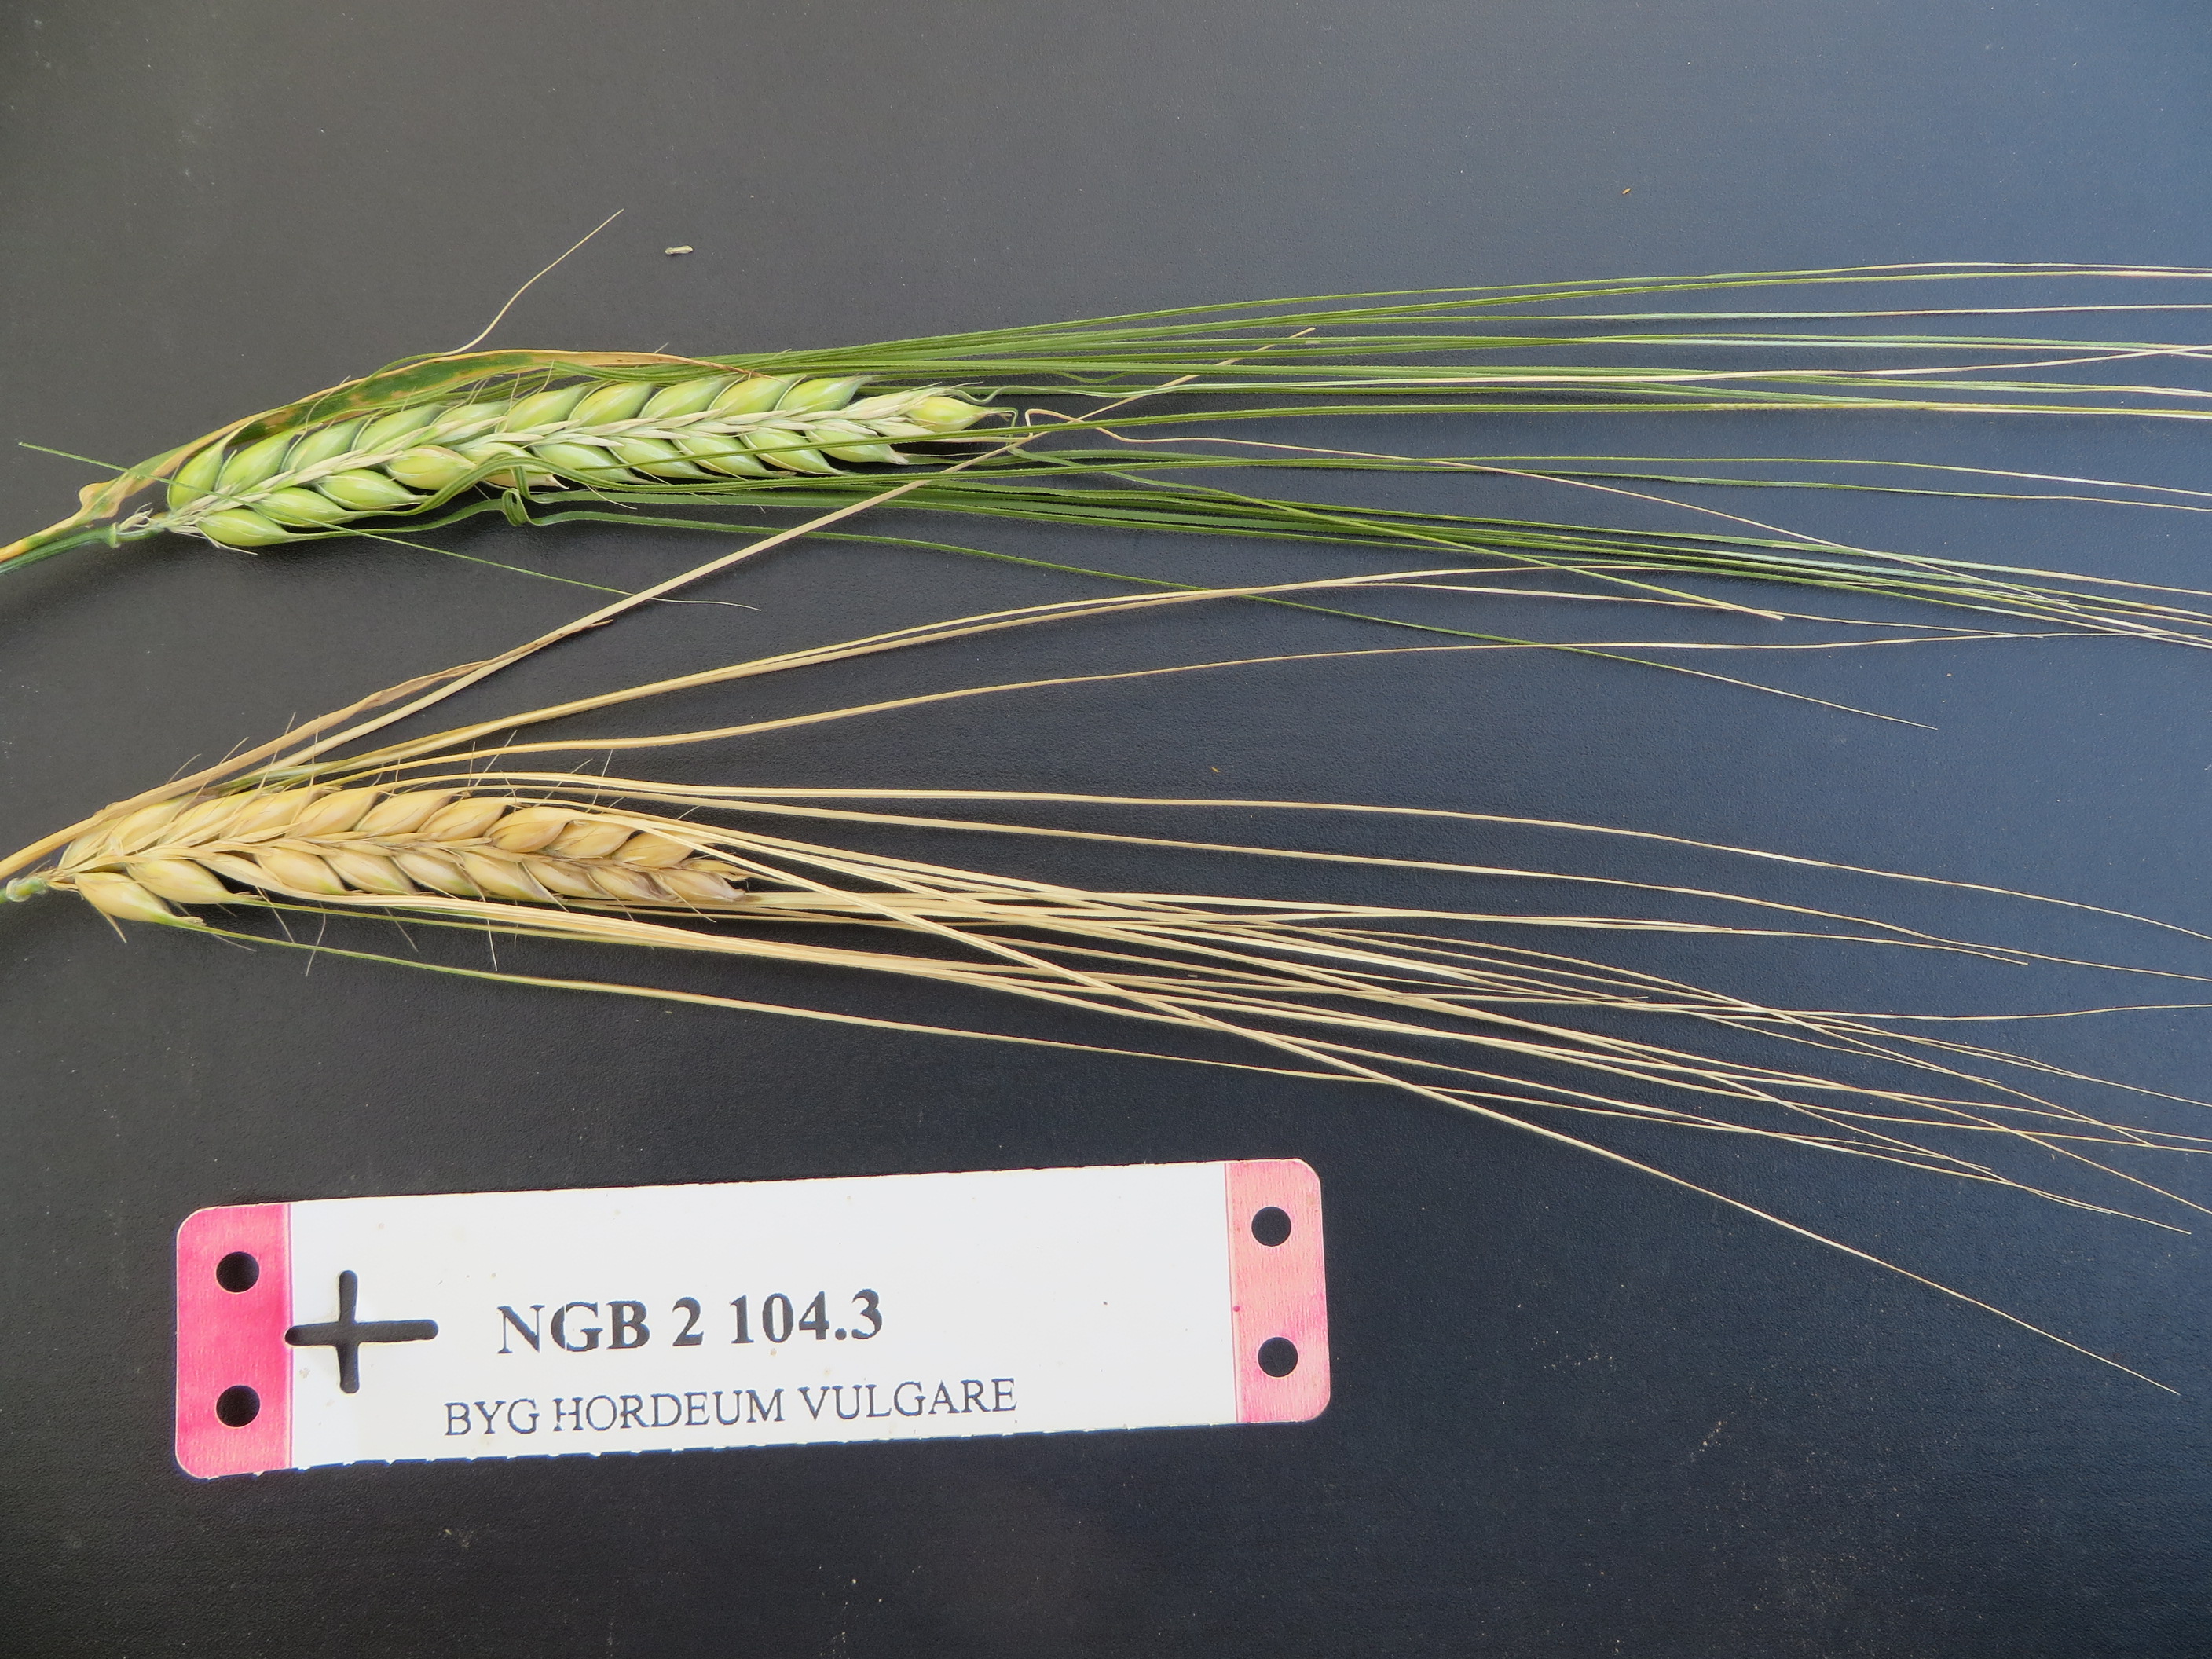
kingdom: Plantae
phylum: Tracheophyta
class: Liliopsida
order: Poales
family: Poaceae
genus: Hordeum
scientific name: Hordeum vulgare
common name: Common barley
